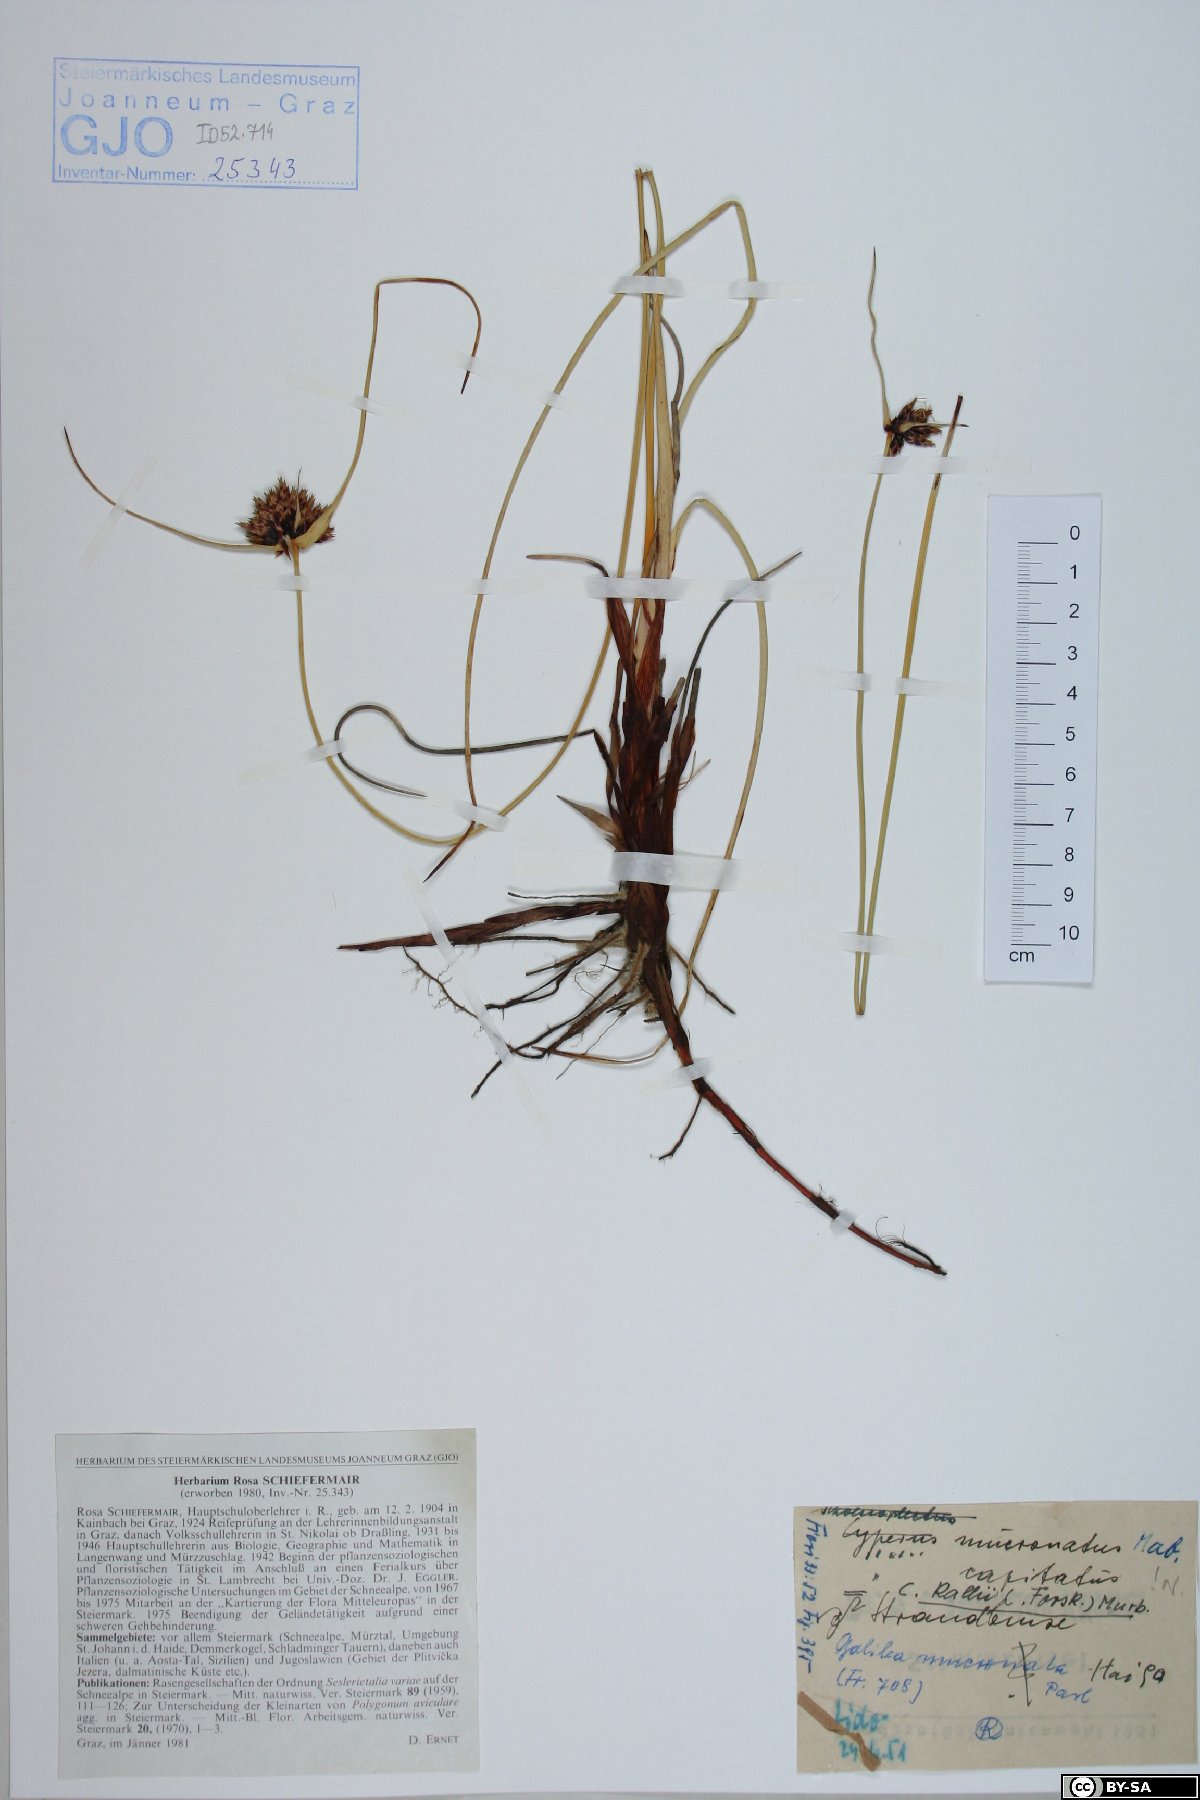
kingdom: Plantae
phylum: Tracheophyta
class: Liliopsida
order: Poales
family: Cyperaceae
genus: Cyperus
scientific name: Cyperus capitatus
